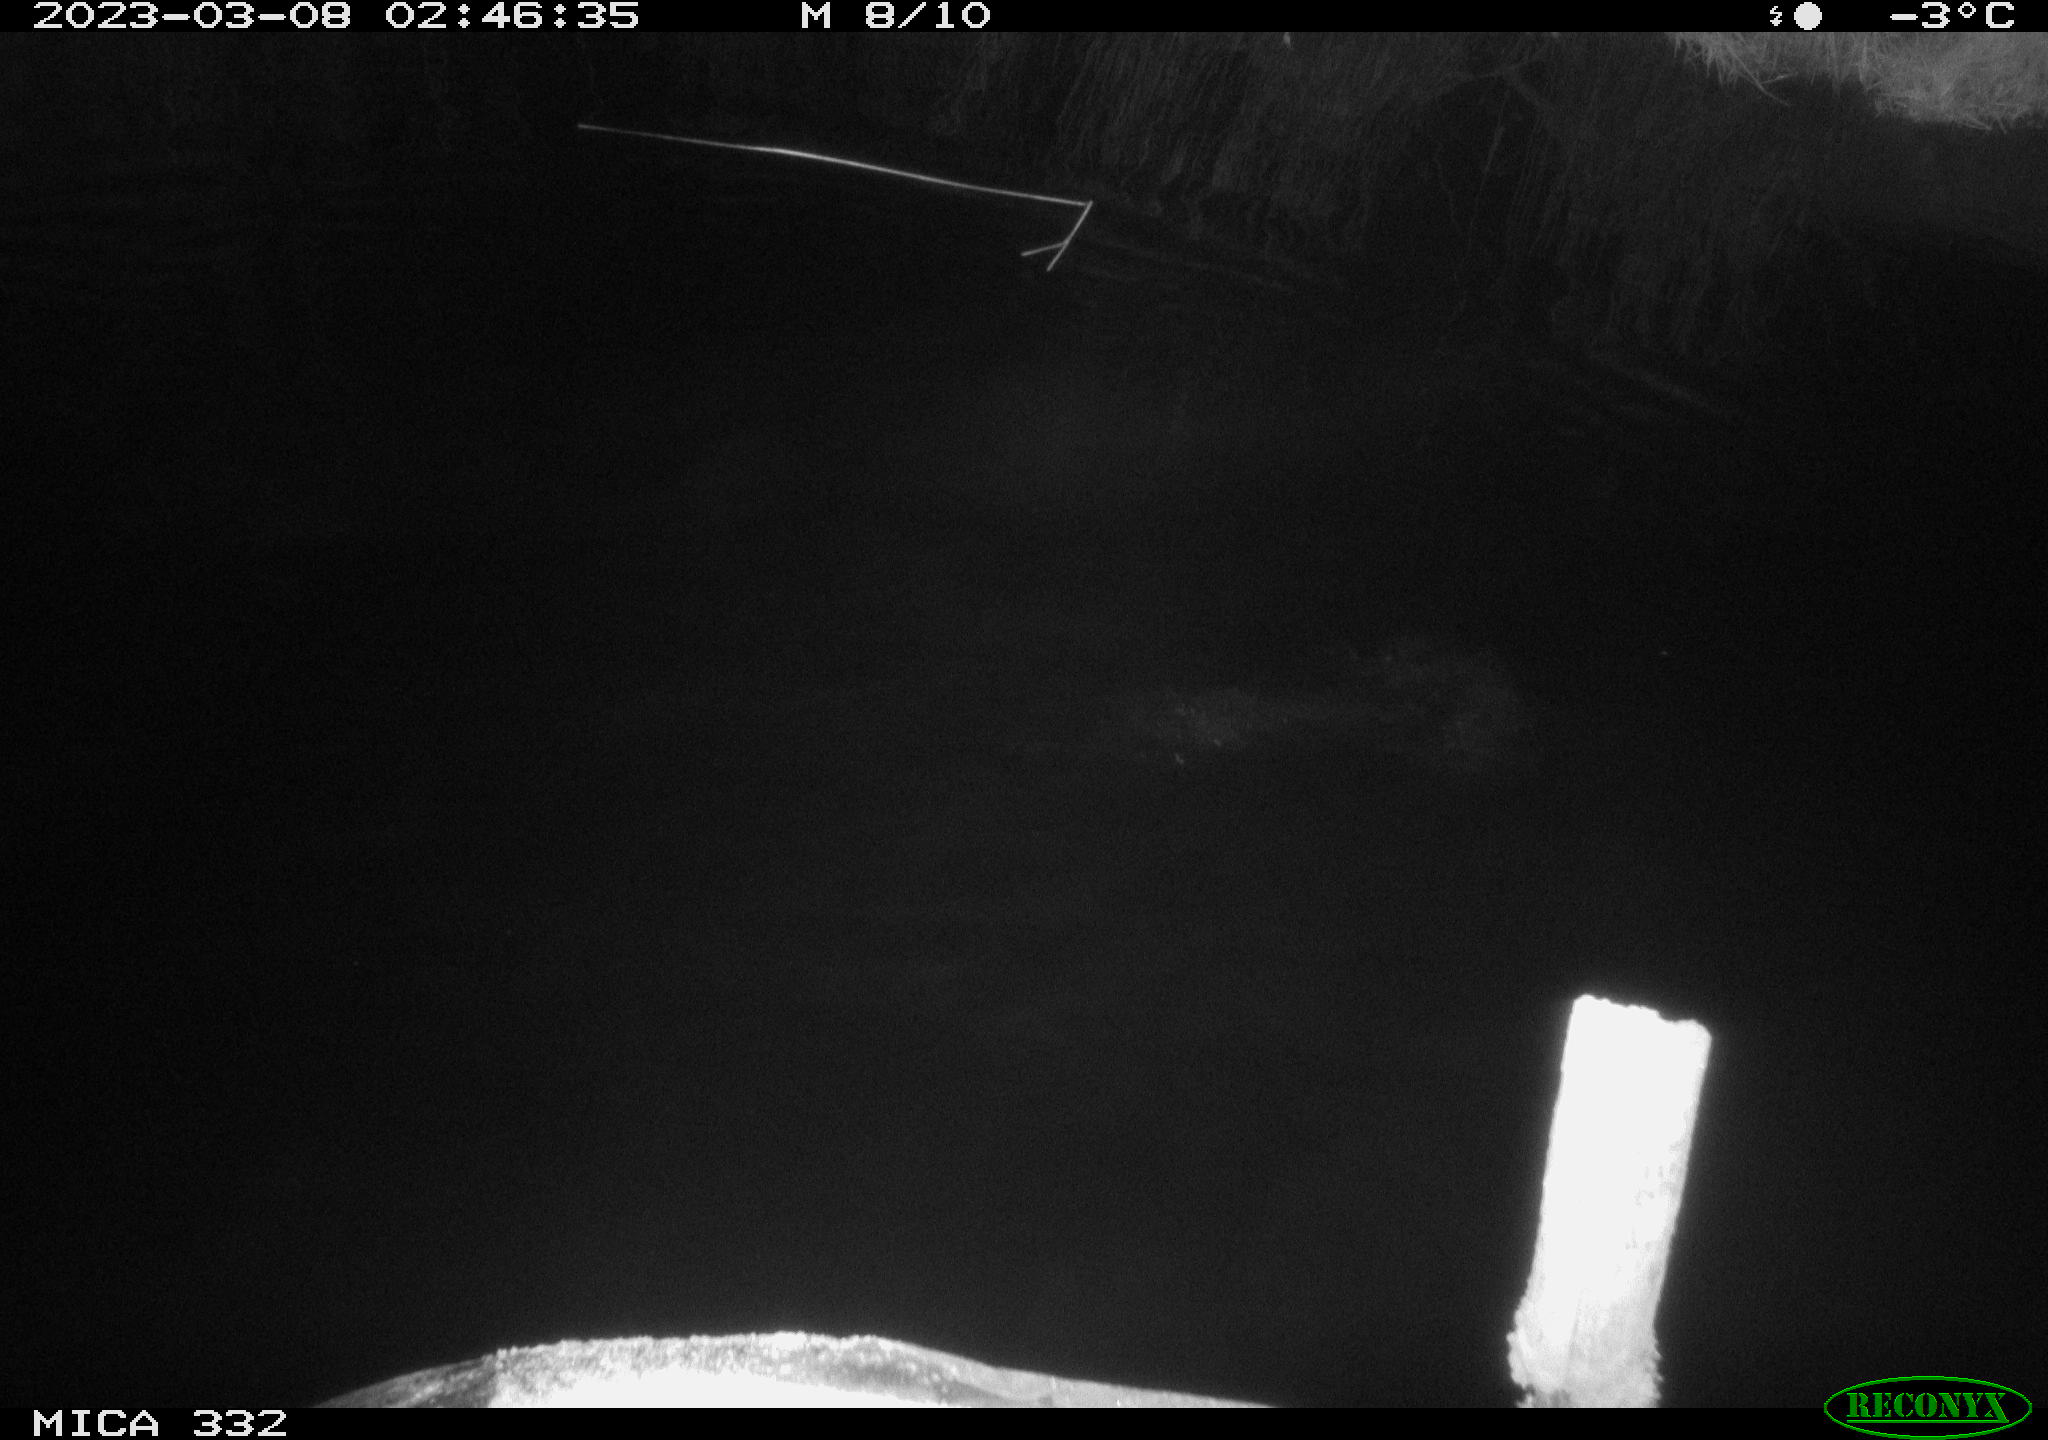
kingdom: Animalia
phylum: Chordata
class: Aves
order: Anseriformes
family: Anatidae
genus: Anas
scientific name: Anas platyrhynchos
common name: Mallard
